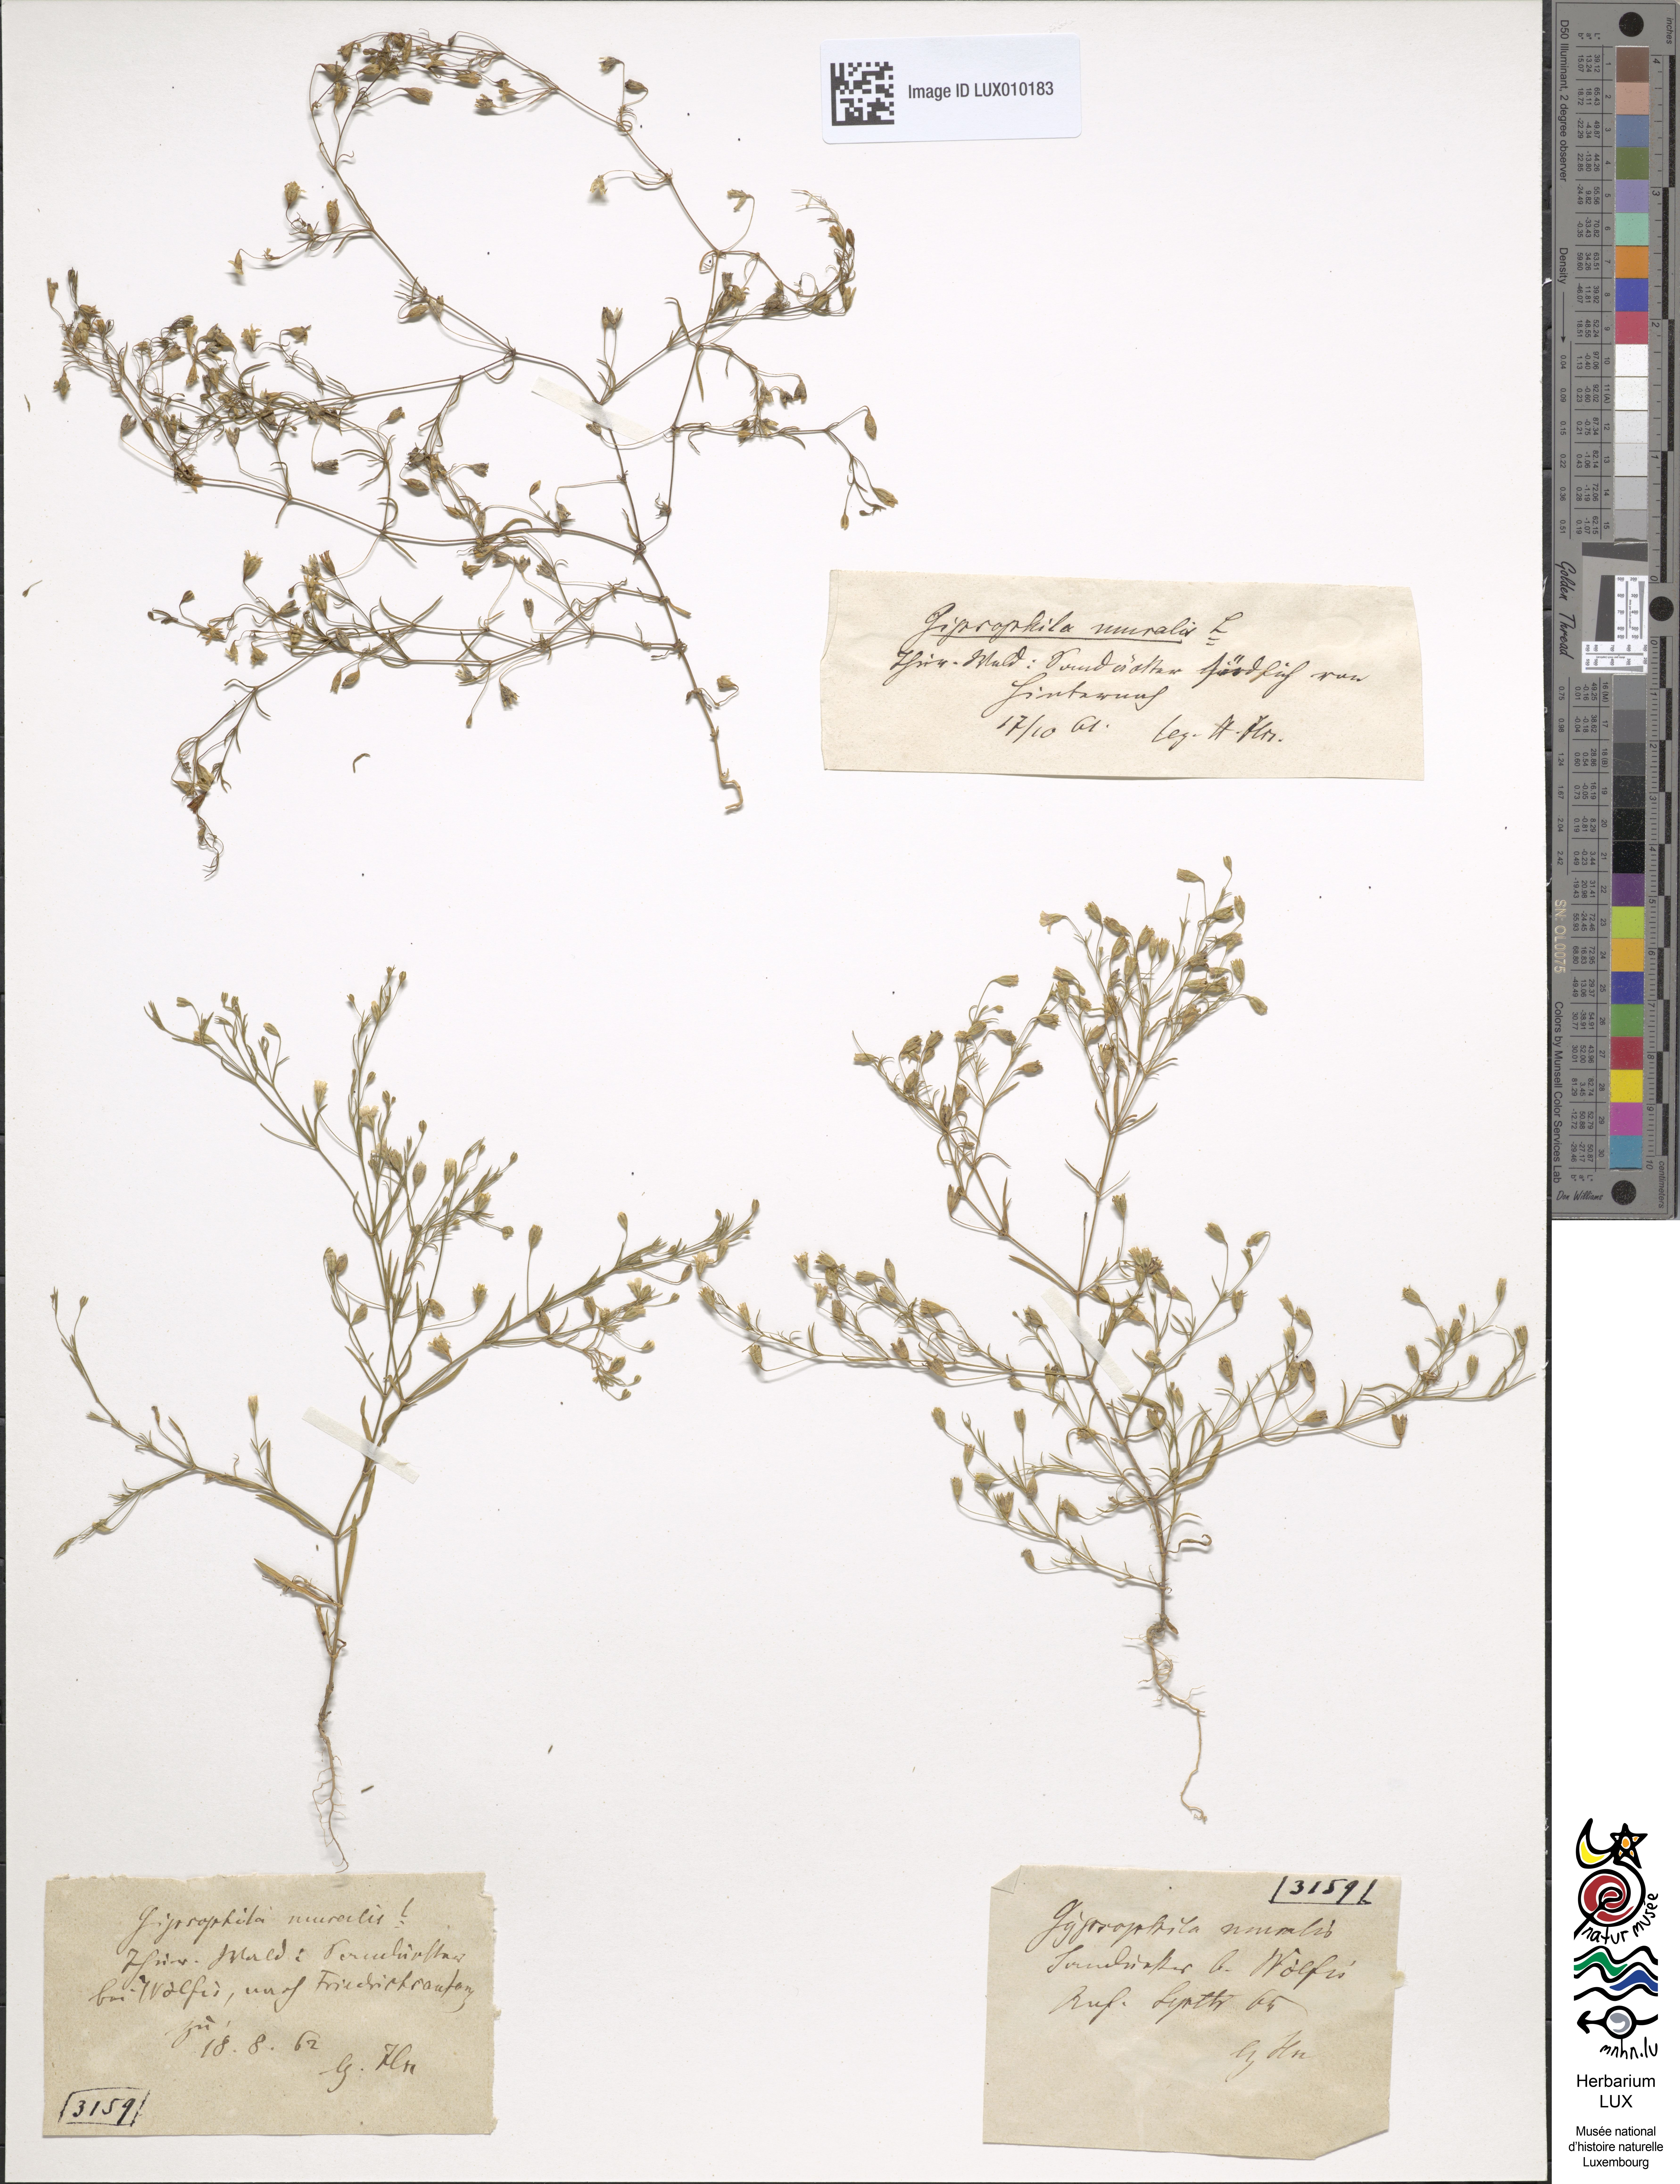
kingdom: Plantae
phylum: Tracheophyta
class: Magnoliopsida
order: Caryophyllales
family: Caryophyllaceae
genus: Psammophiliella
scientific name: Psammophiliella muralis
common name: Cushion baby's-breath
